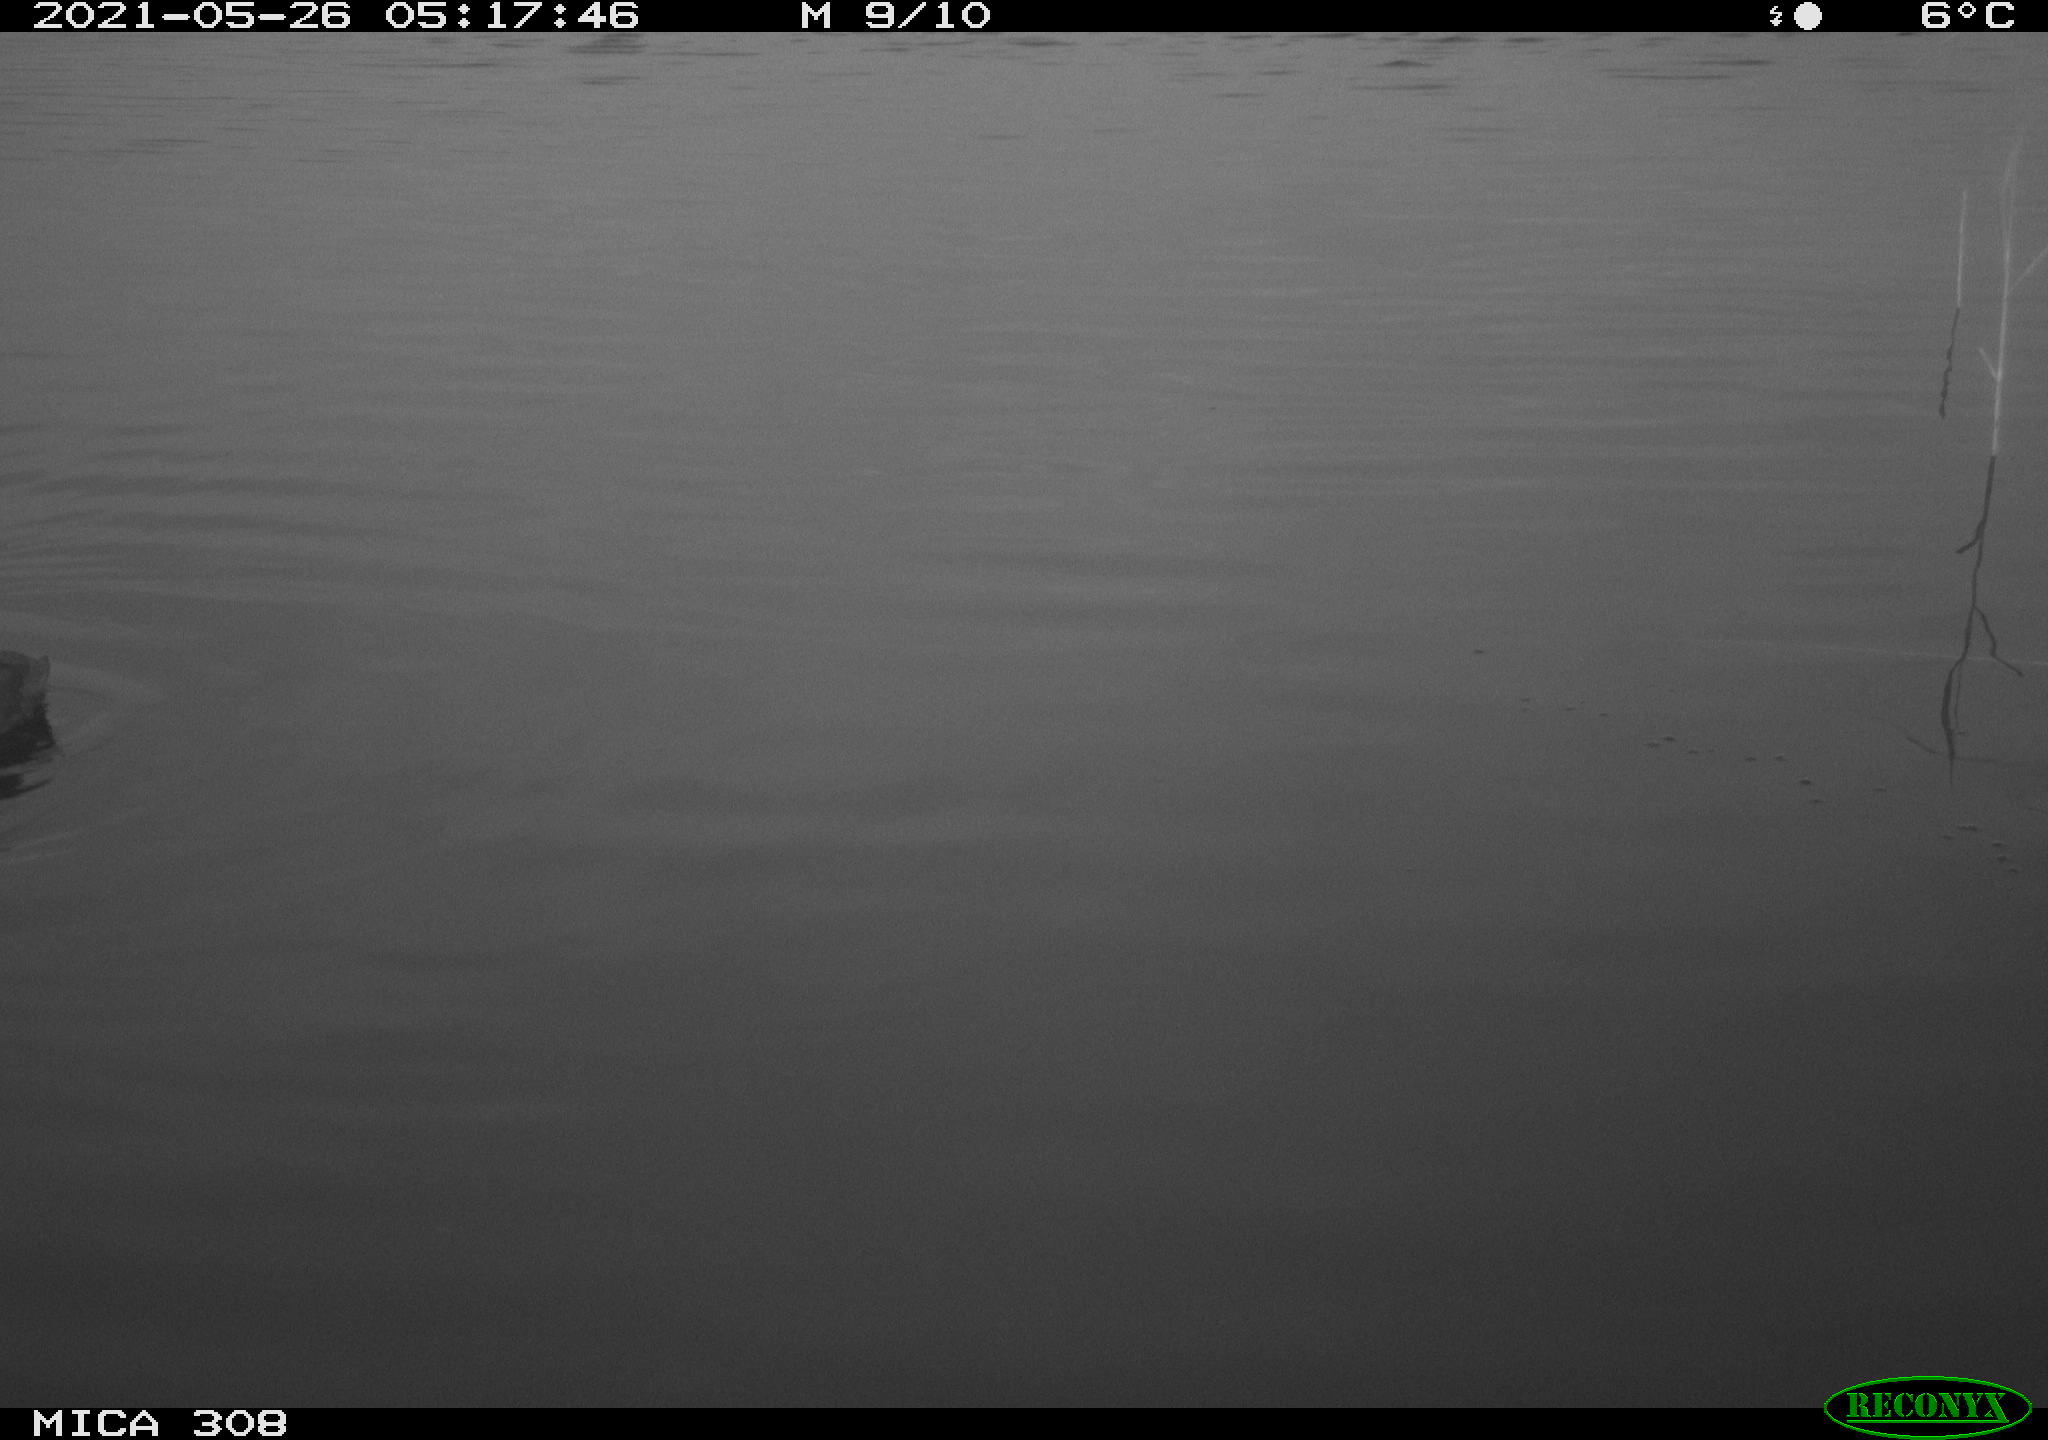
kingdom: Animalia
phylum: Chordata
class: Aves
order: Gruiformes
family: Rallidae
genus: Fulica
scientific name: Fulica atra
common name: Eurasian coot
